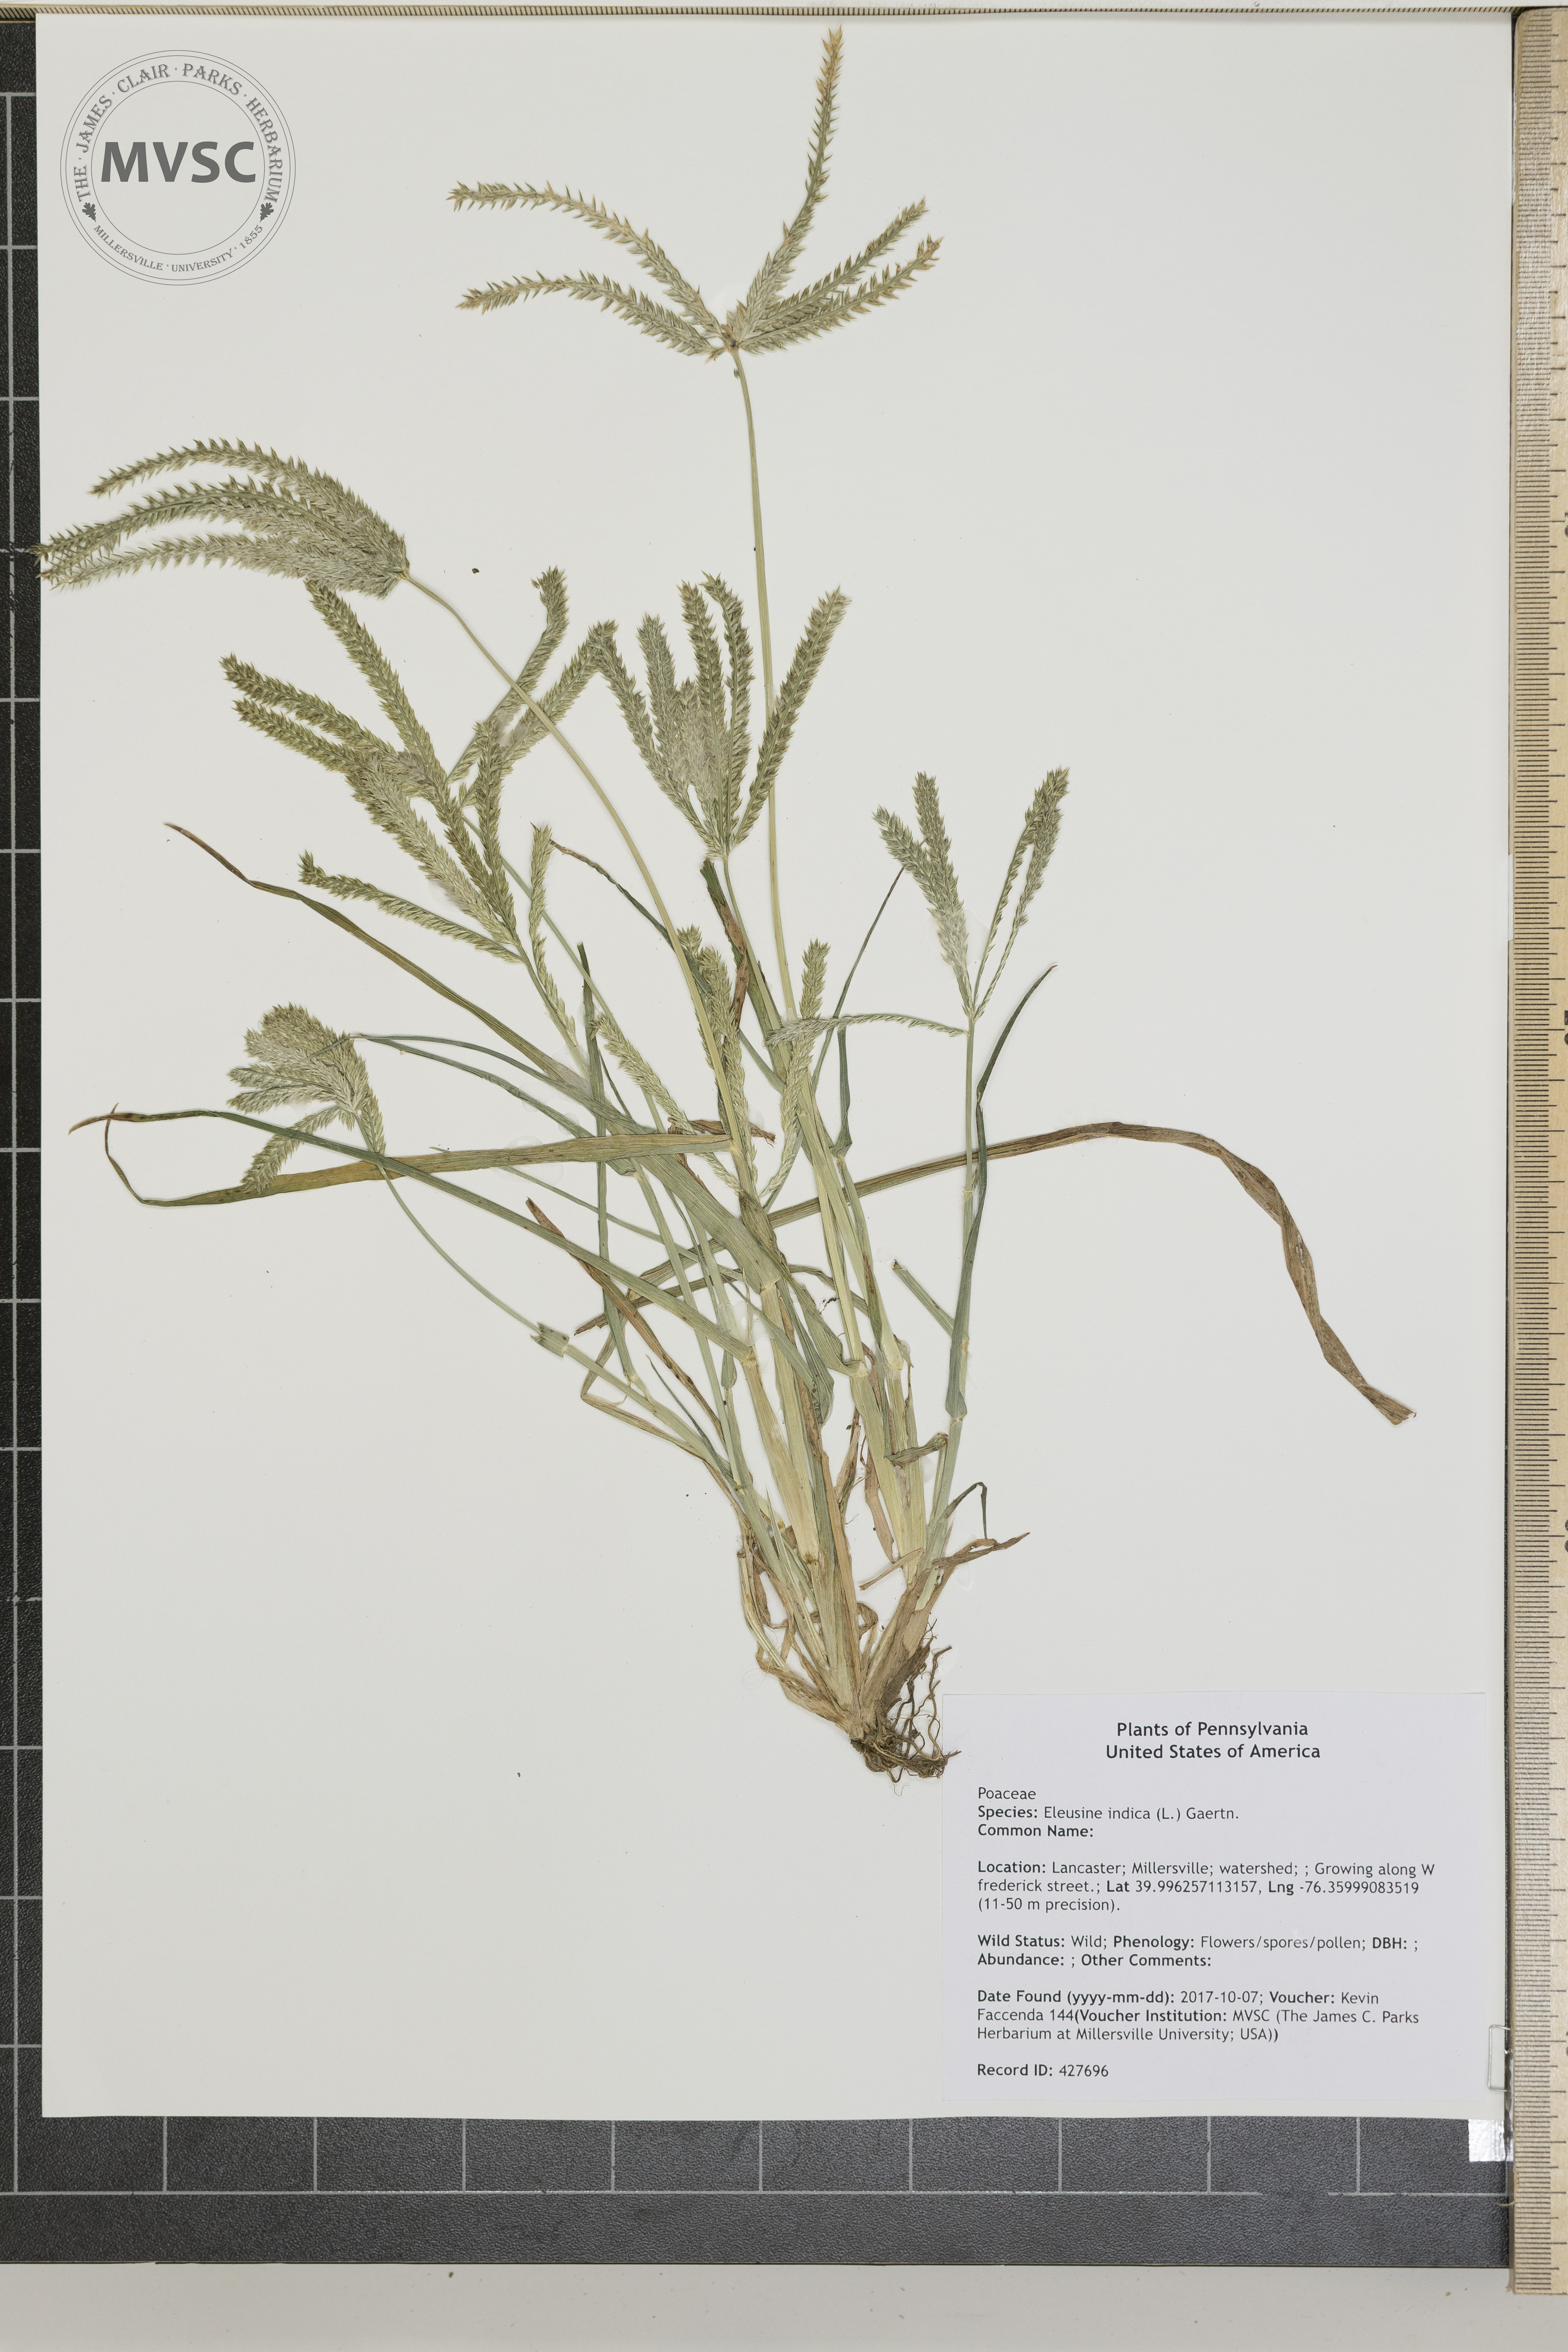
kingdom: Plantae
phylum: Tracheophyta
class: Liliopsida
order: Poales
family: Poaceae
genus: Eleusine
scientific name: Eleusine indica
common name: Yard-grass
